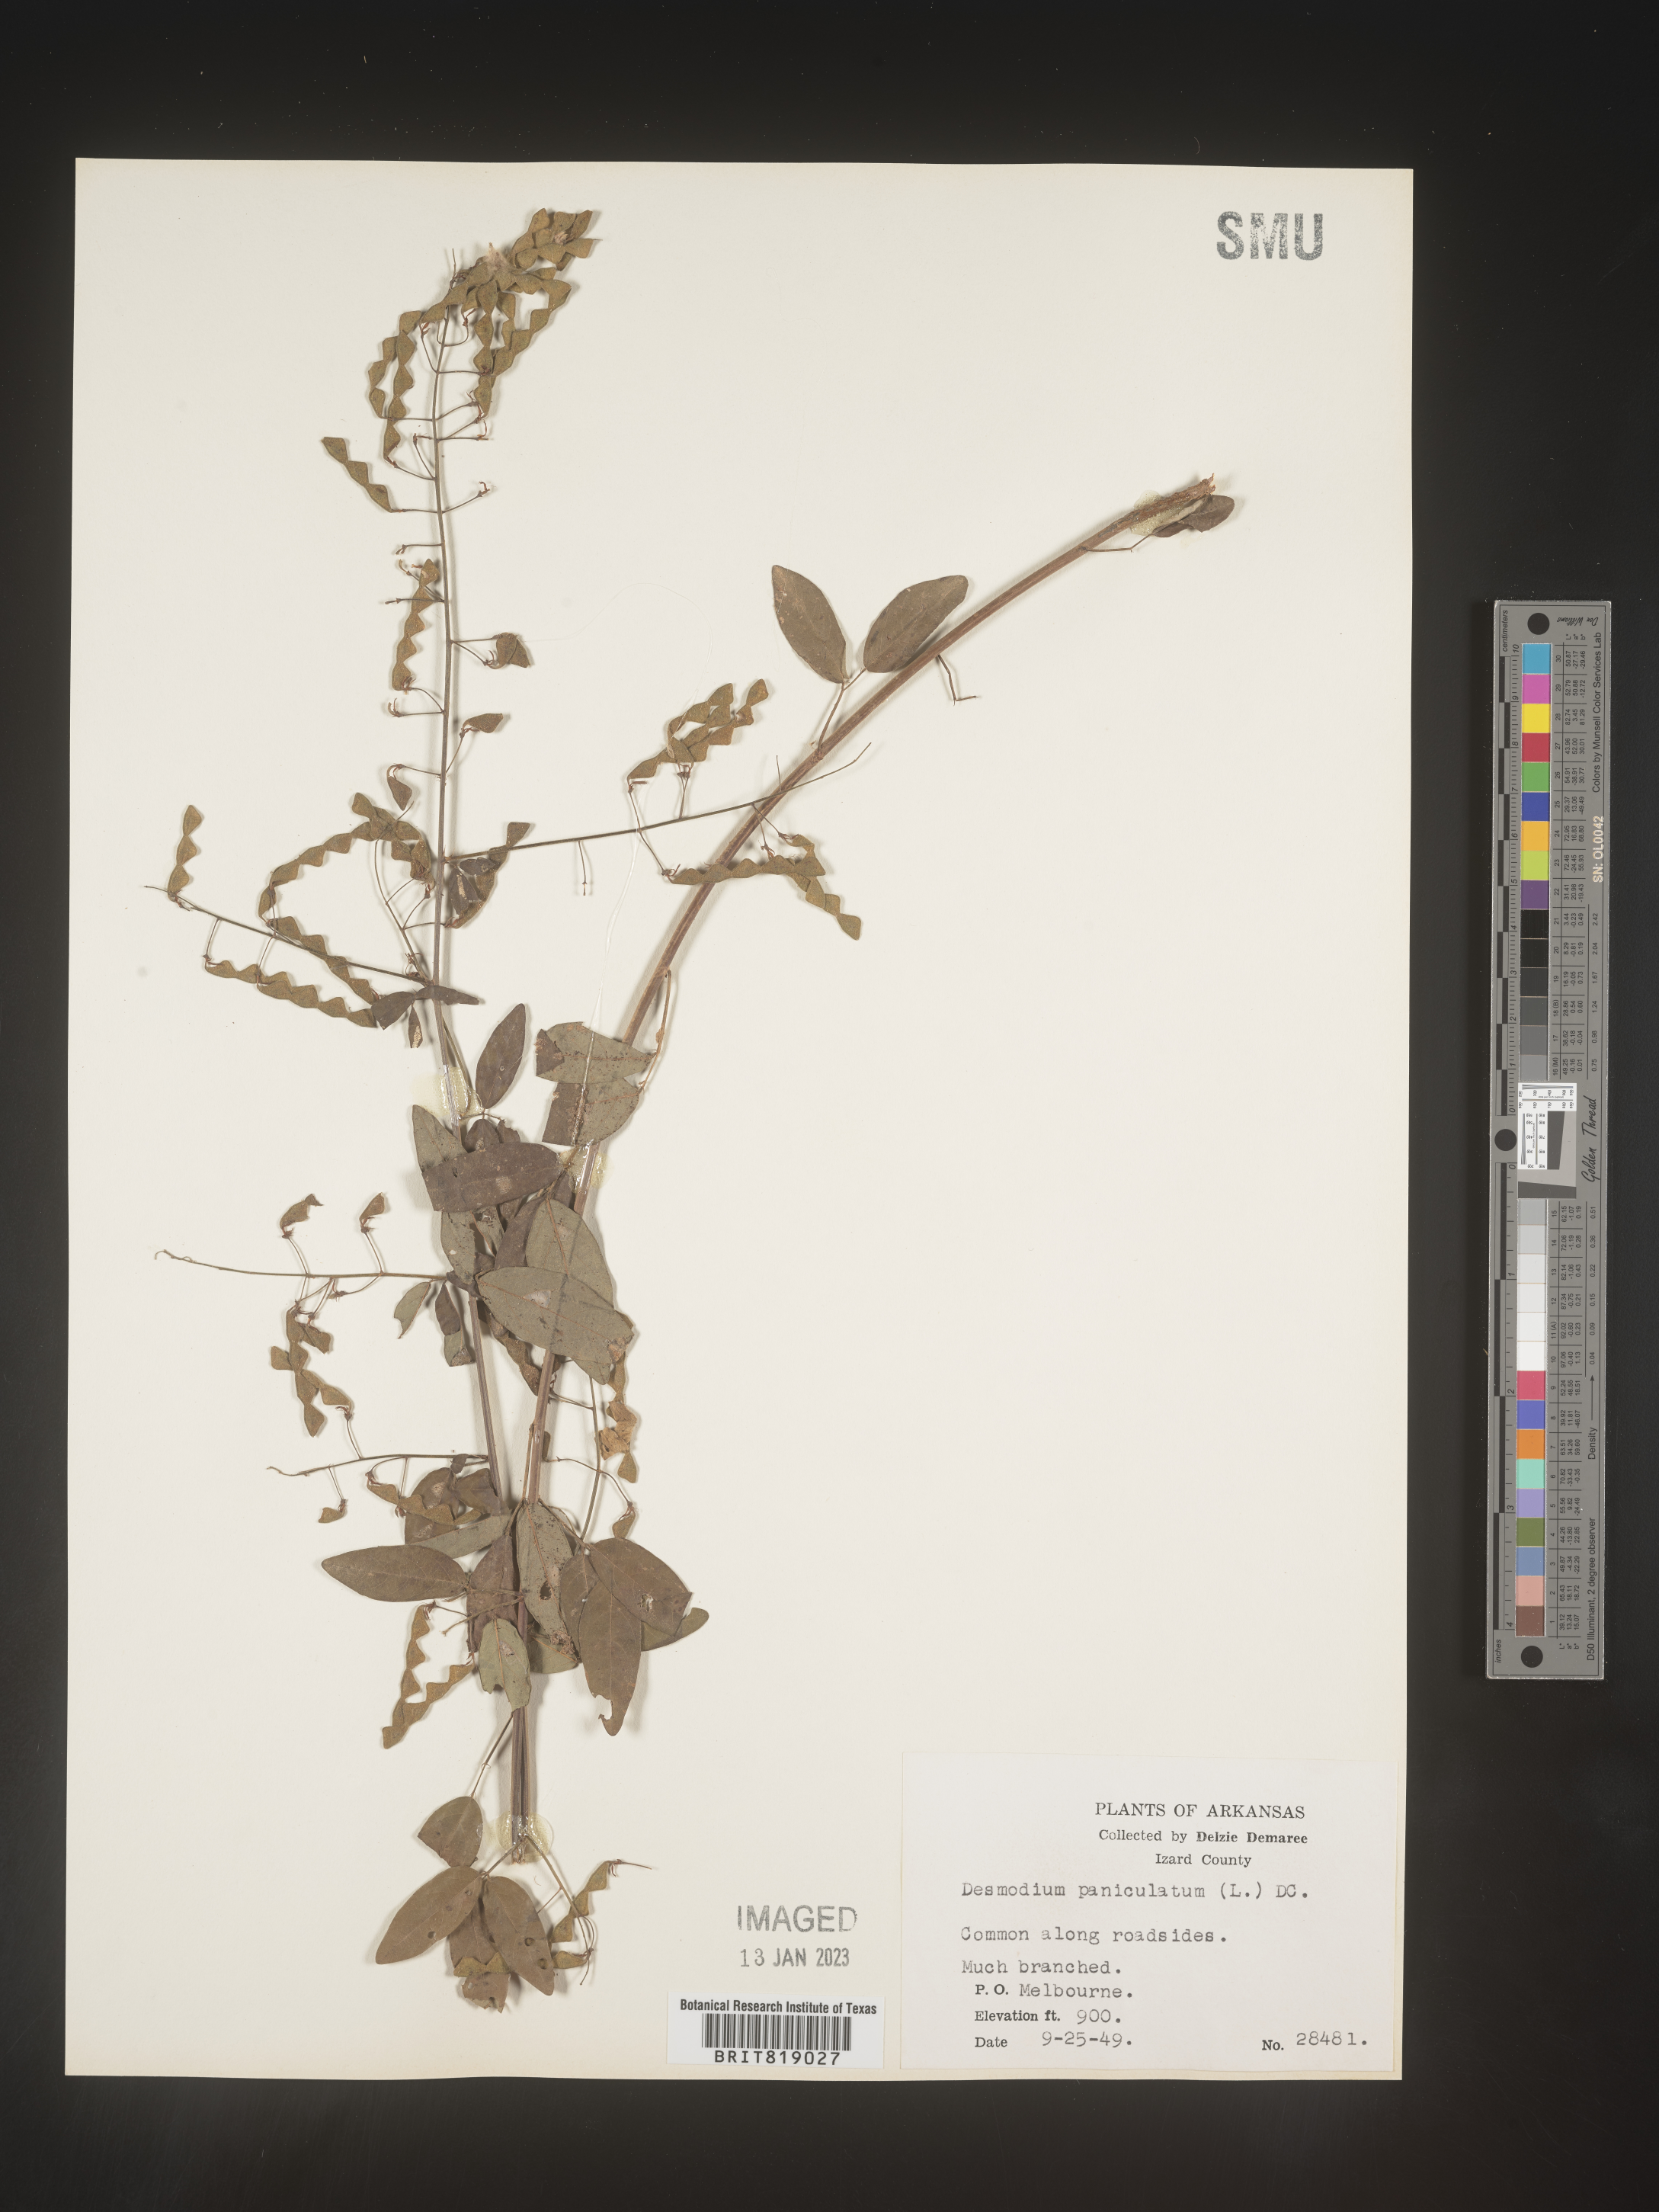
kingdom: Plantae
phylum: Tracheophyta
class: Magnoliopsida
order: Fabales
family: Fabaceae
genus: Desmodium
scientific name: Desmodium paniculatum
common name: Panicled tick-clover
